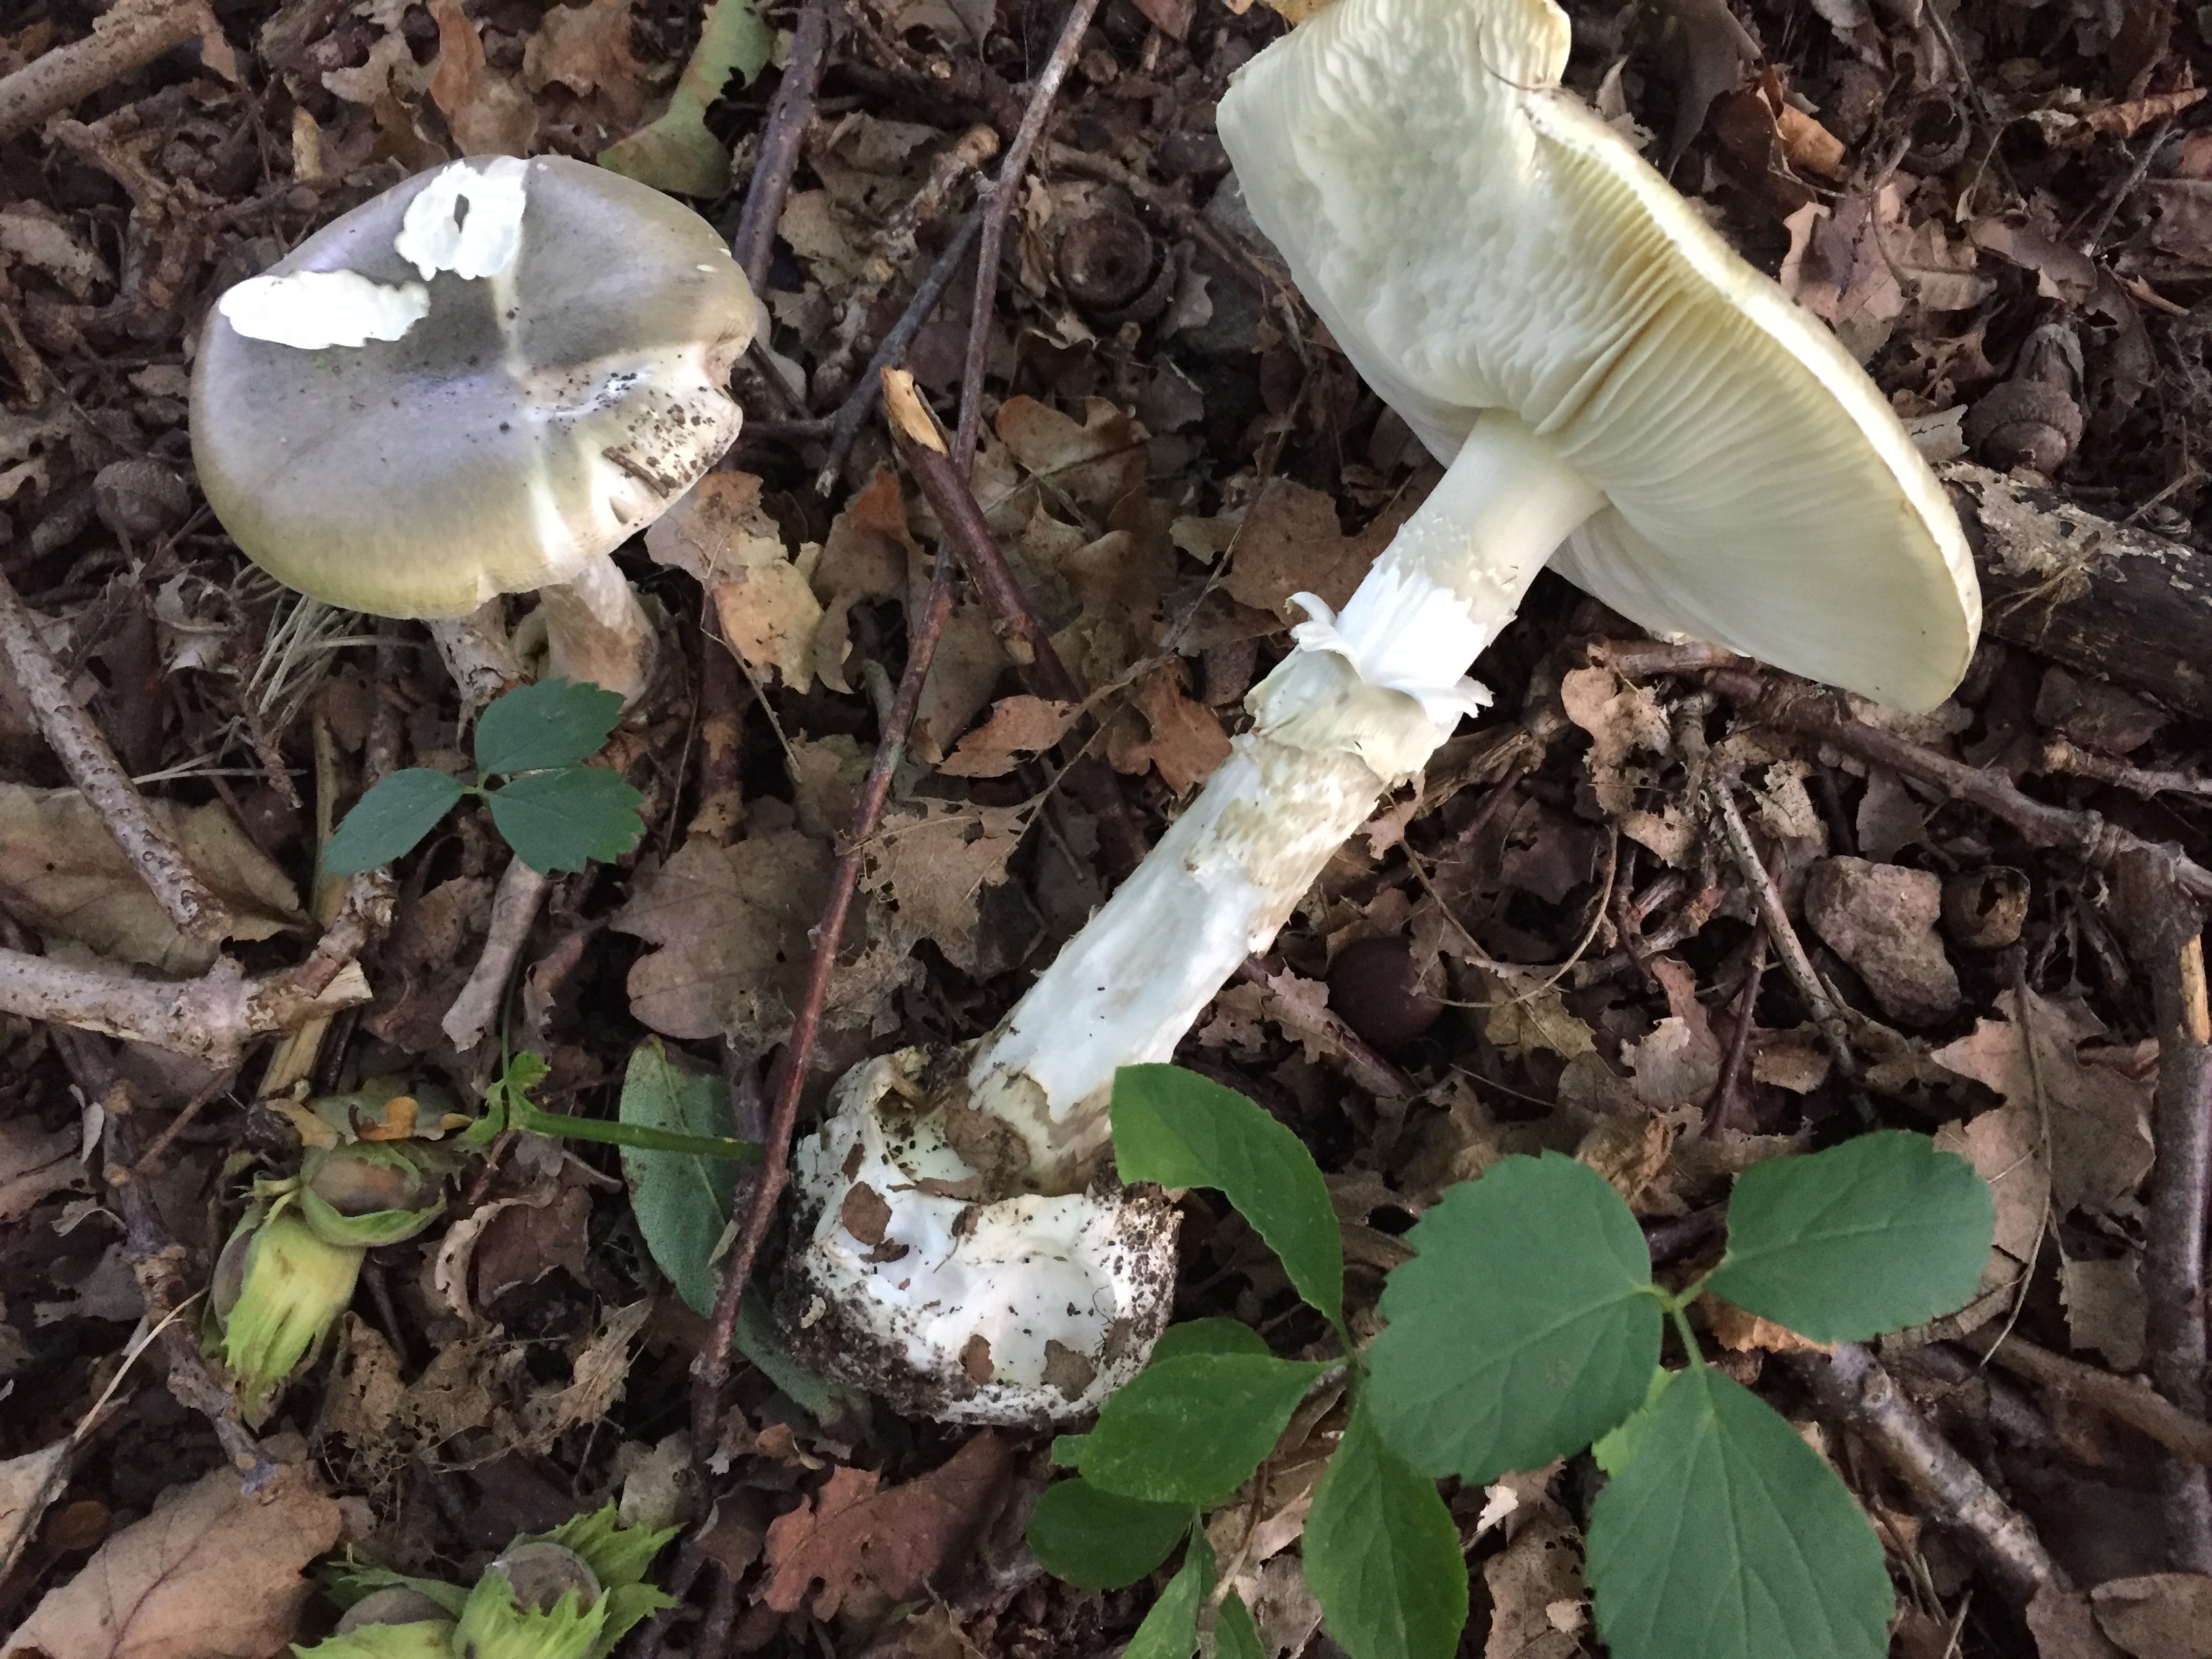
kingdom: Fungi
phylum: Basidiomycota
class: Agaricomycetes
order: Agaricales
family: Amanitaceae
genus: Amanita
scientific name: Amanita phalloides
